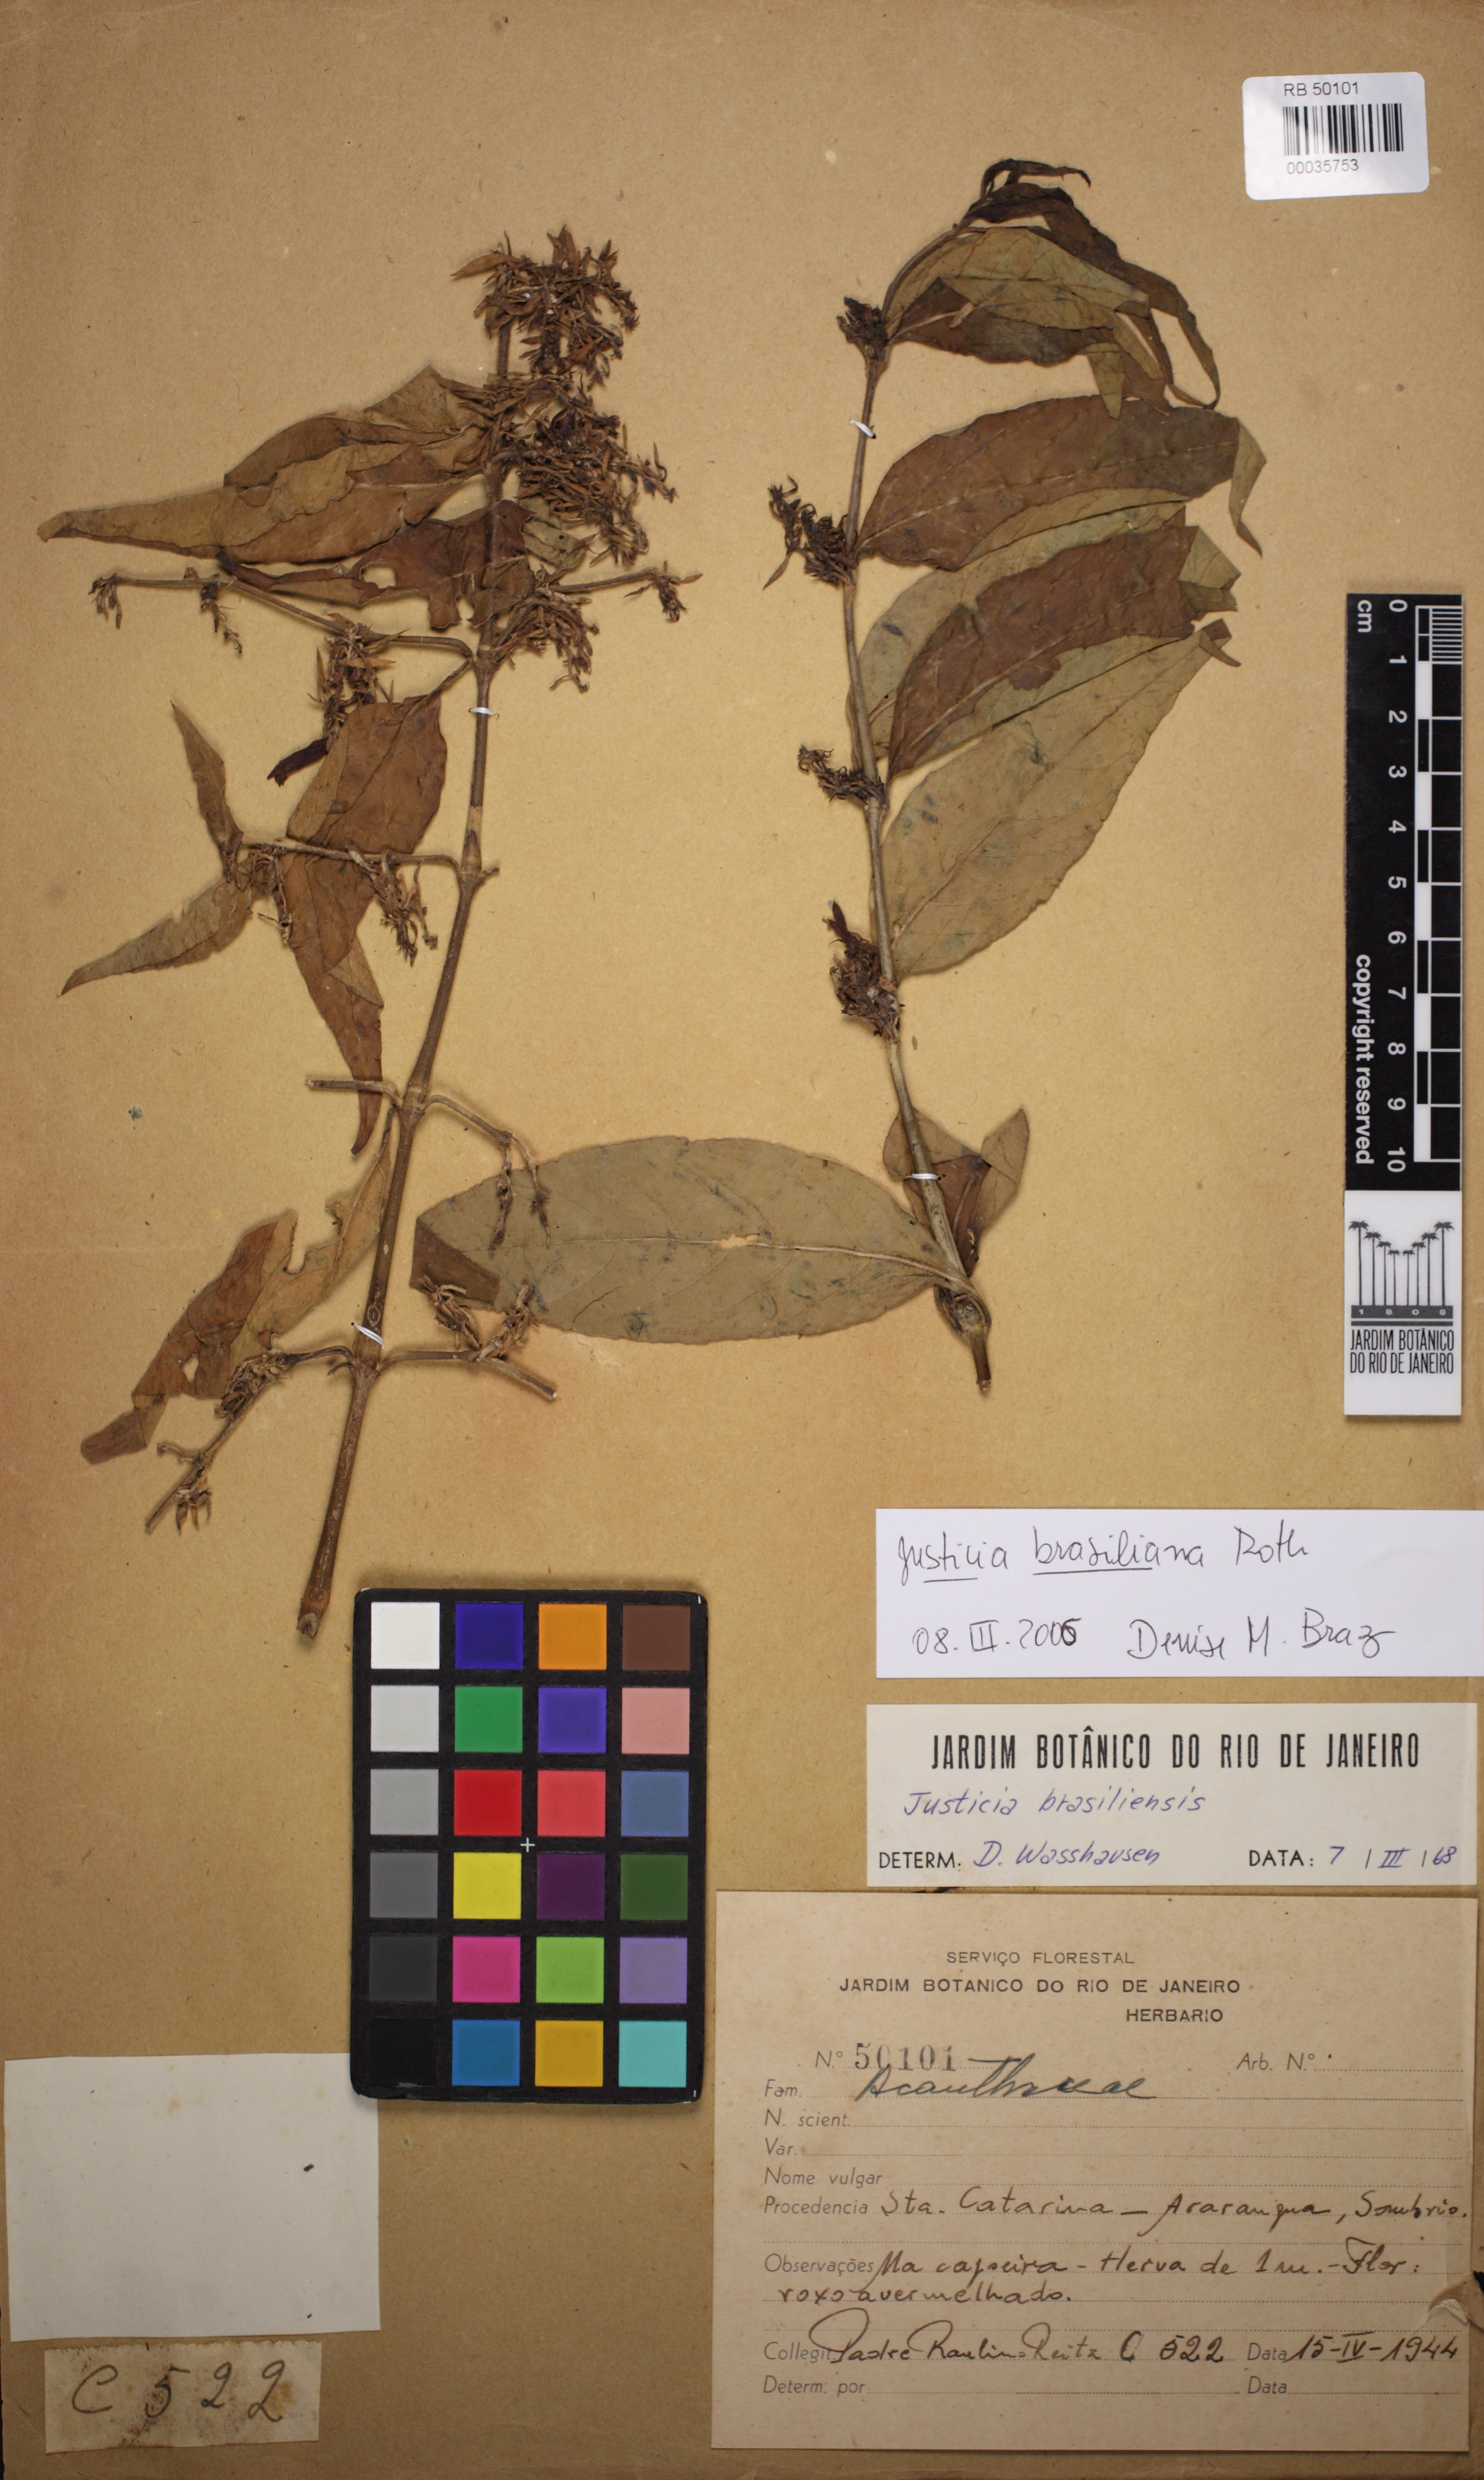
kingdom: Plantae
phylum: Tracheophyta
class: Magnoliopsida
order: Lamiales
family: Acanthaceae
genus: Dianthera
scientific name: Dianthera brasiliensis
